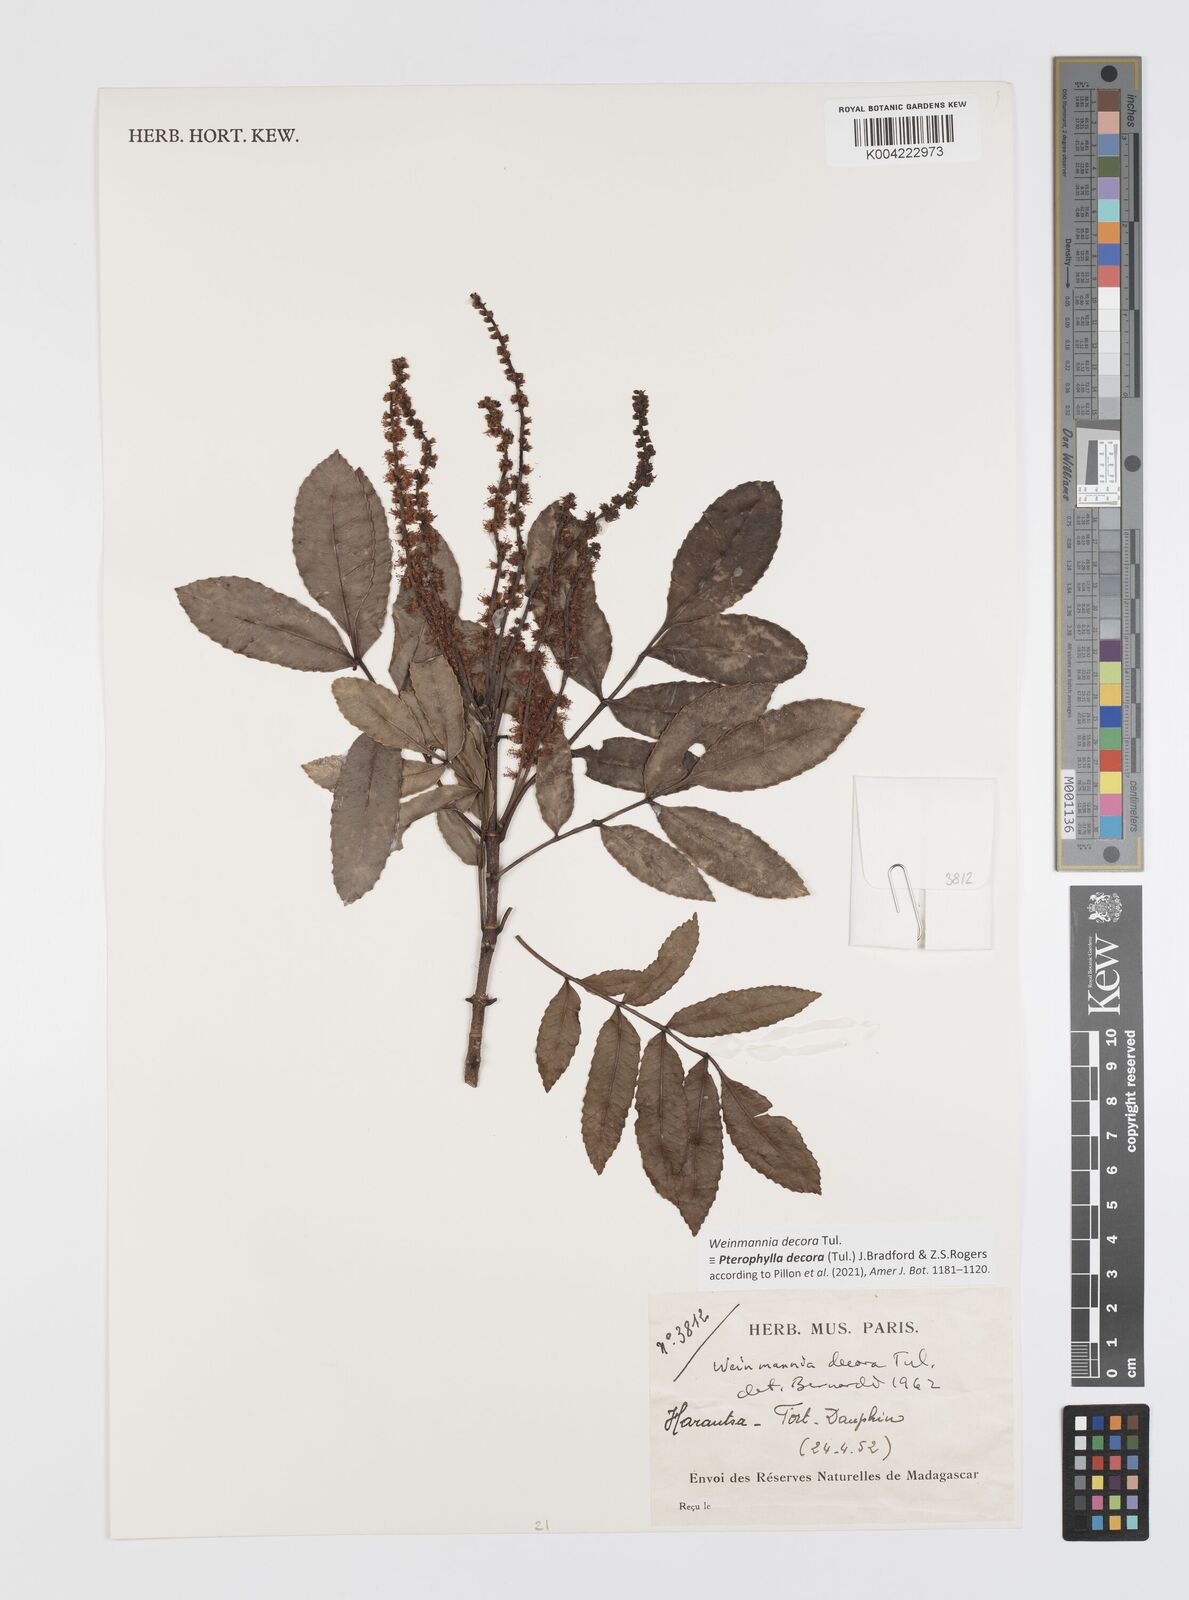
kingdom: Plantae
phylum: Tracheophyta
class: Magnoliopsida
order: Oxalidales
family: Cunoniaceae
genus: Pterophylla
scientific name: Pterophylla decora
